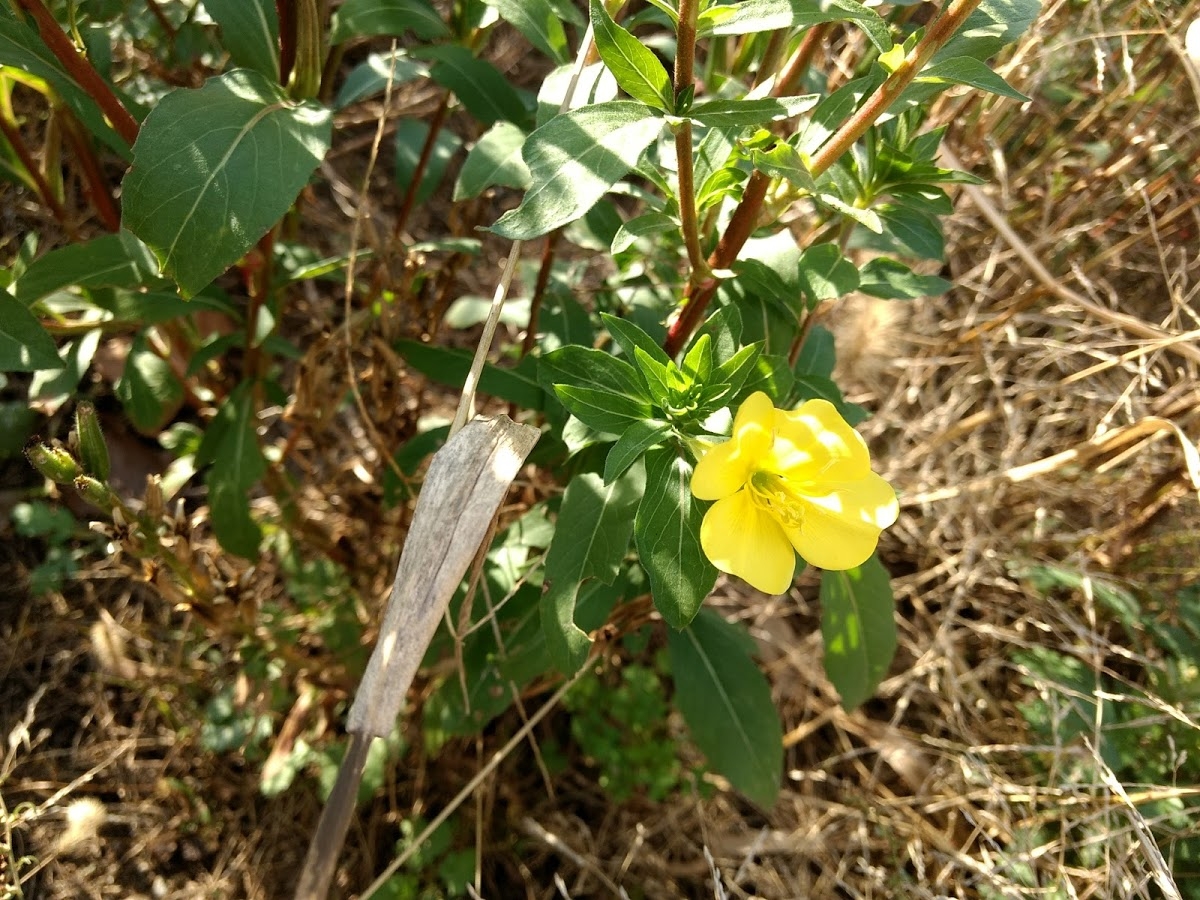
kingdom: Plantae
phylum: Tracheophyta
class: Magnoliopsida
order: Myrtales
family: Onagraceae
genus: Oenothera
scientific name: Oenothera biennis
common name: Evening Primrose
